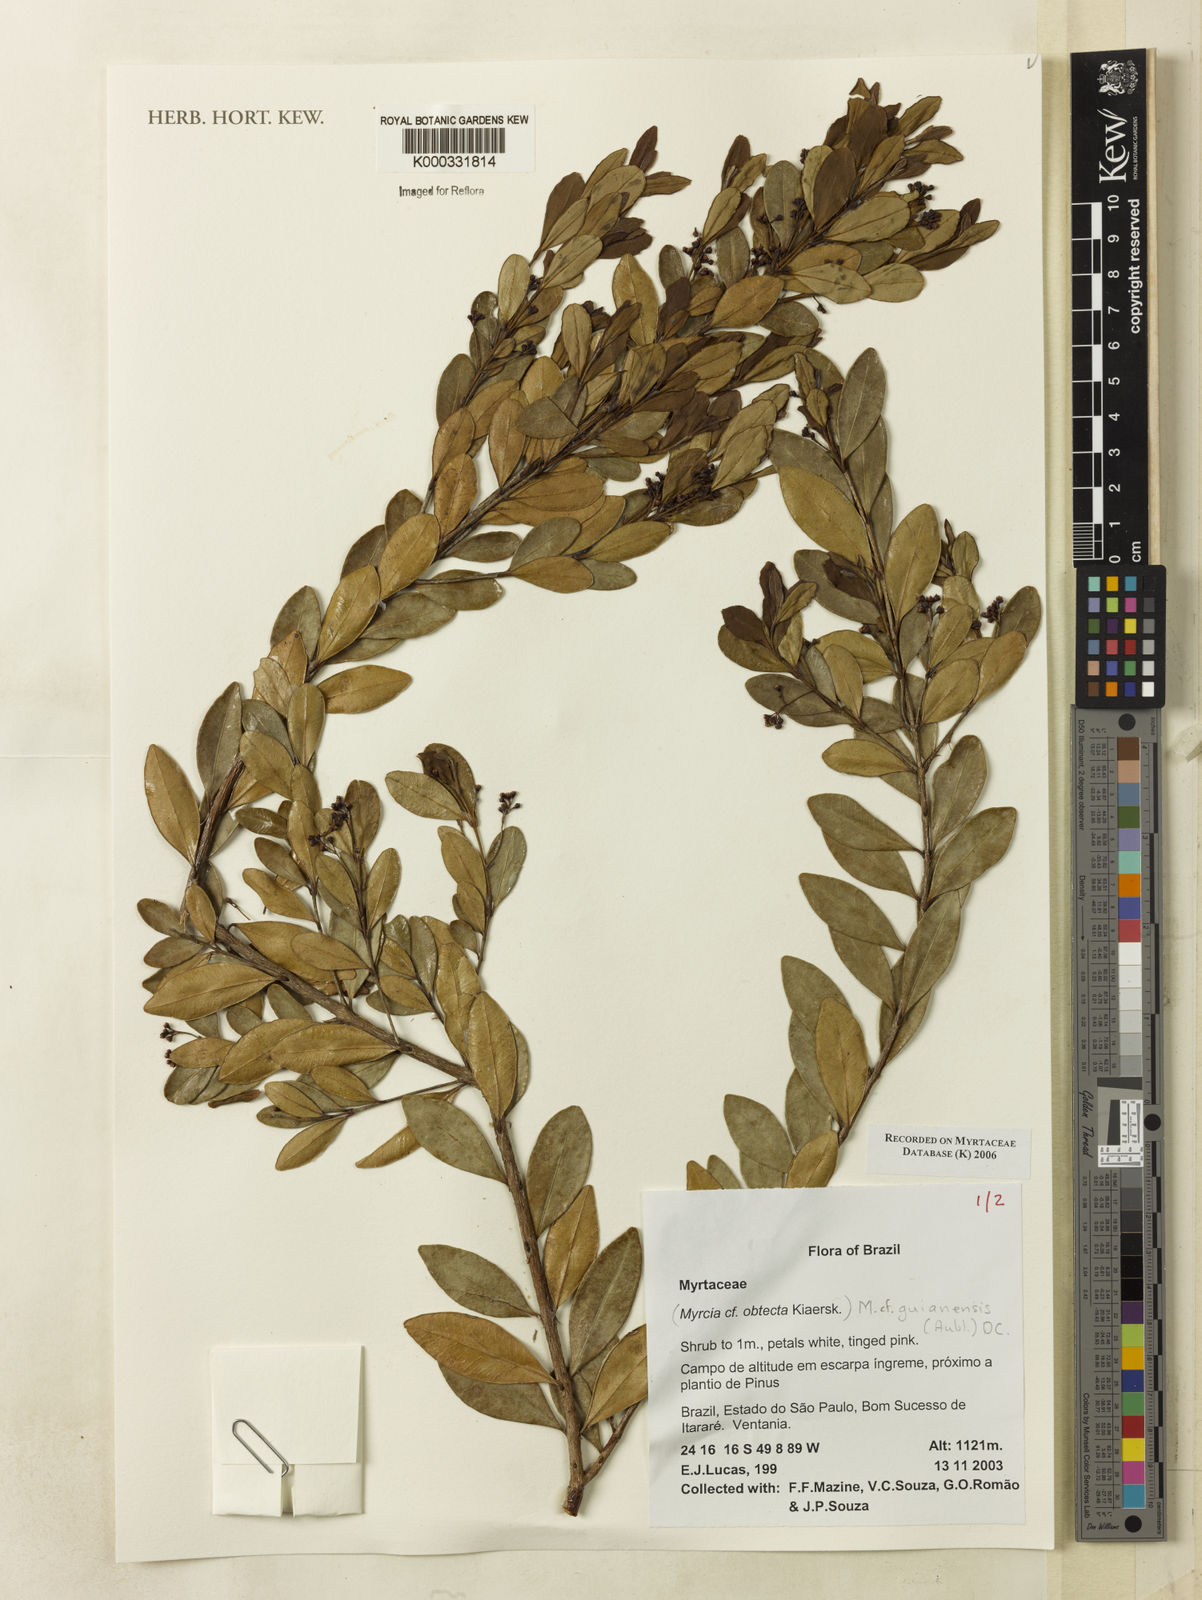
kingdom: Plantae
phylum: Tracheophyta
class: Magnoliopsida
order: Myrtales
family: Myrtaceae
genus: Myrcia
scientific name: Myrcia guianensis
